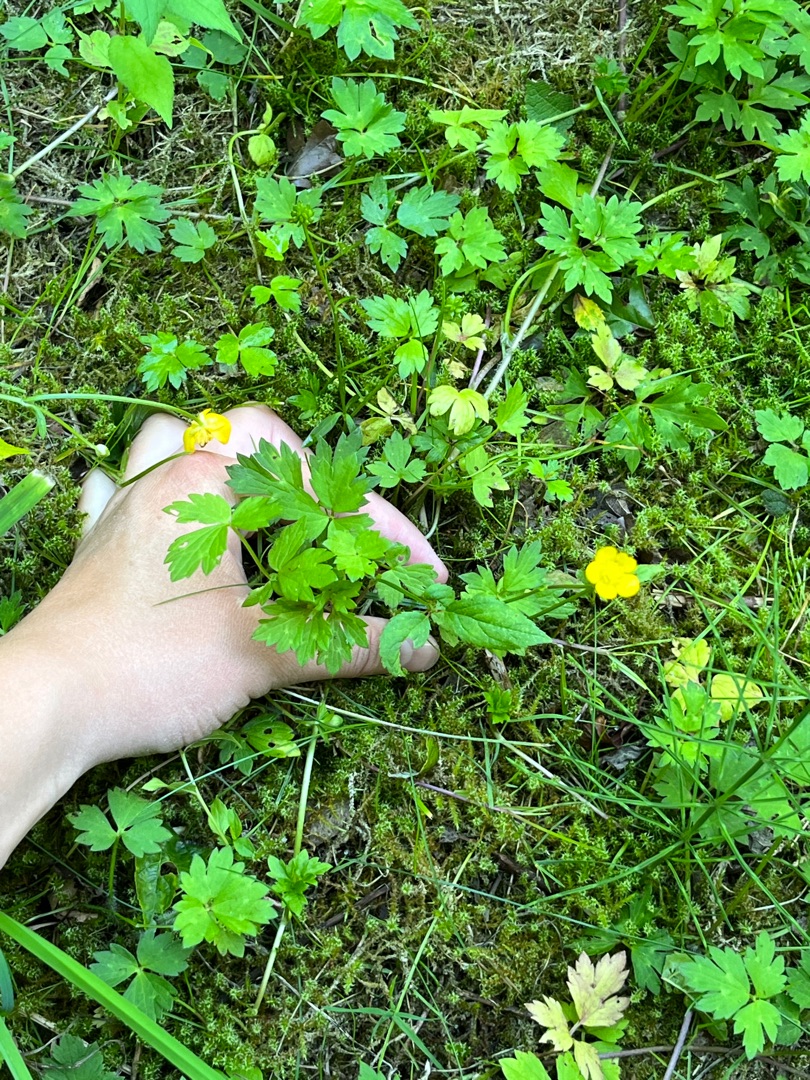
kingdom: Plantae
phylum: Tracheophyta
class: Magnoliopsida
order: Ranunculales
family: Ranunculaceae
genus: Ranunculus
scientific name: Ranunculus repens
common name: Lav ranunkel
